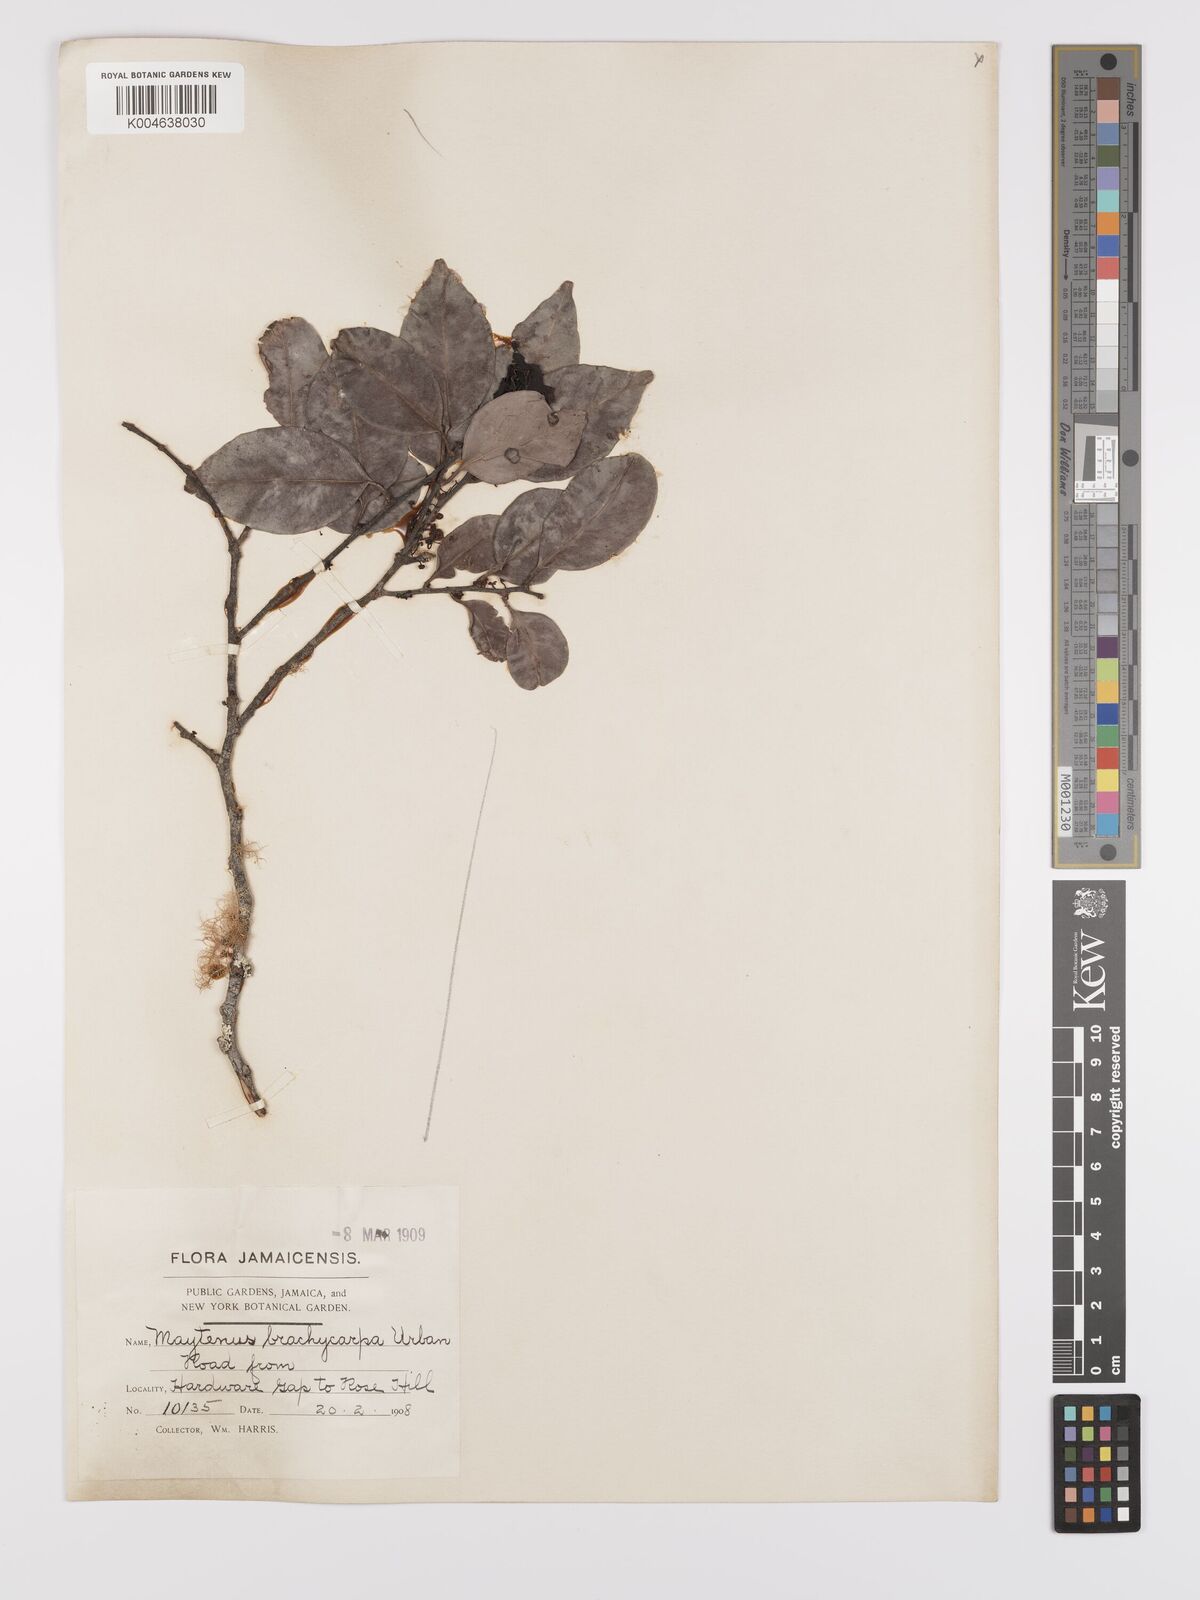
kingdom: Plantae
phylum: Tracheophyta
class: Magnoliopsida
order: Celastrales
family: Celastraceae
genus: Monteverdia
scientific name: Monteverdia jamaicensis
